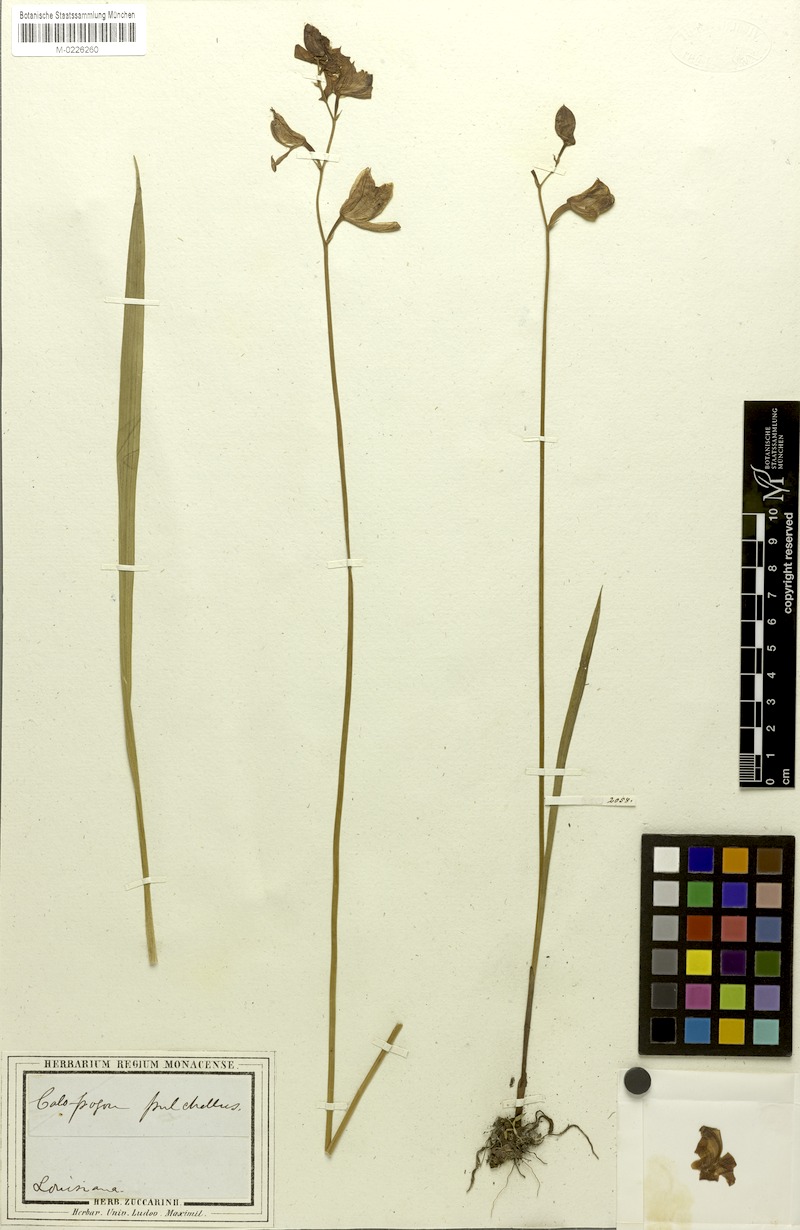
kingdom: Plantae
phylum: Tracheophyta
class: Liliopsida
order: Asparagales
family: Orchidaceae
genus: Calopogon
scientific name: Calopogon tuberosus
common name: Grass-pink
